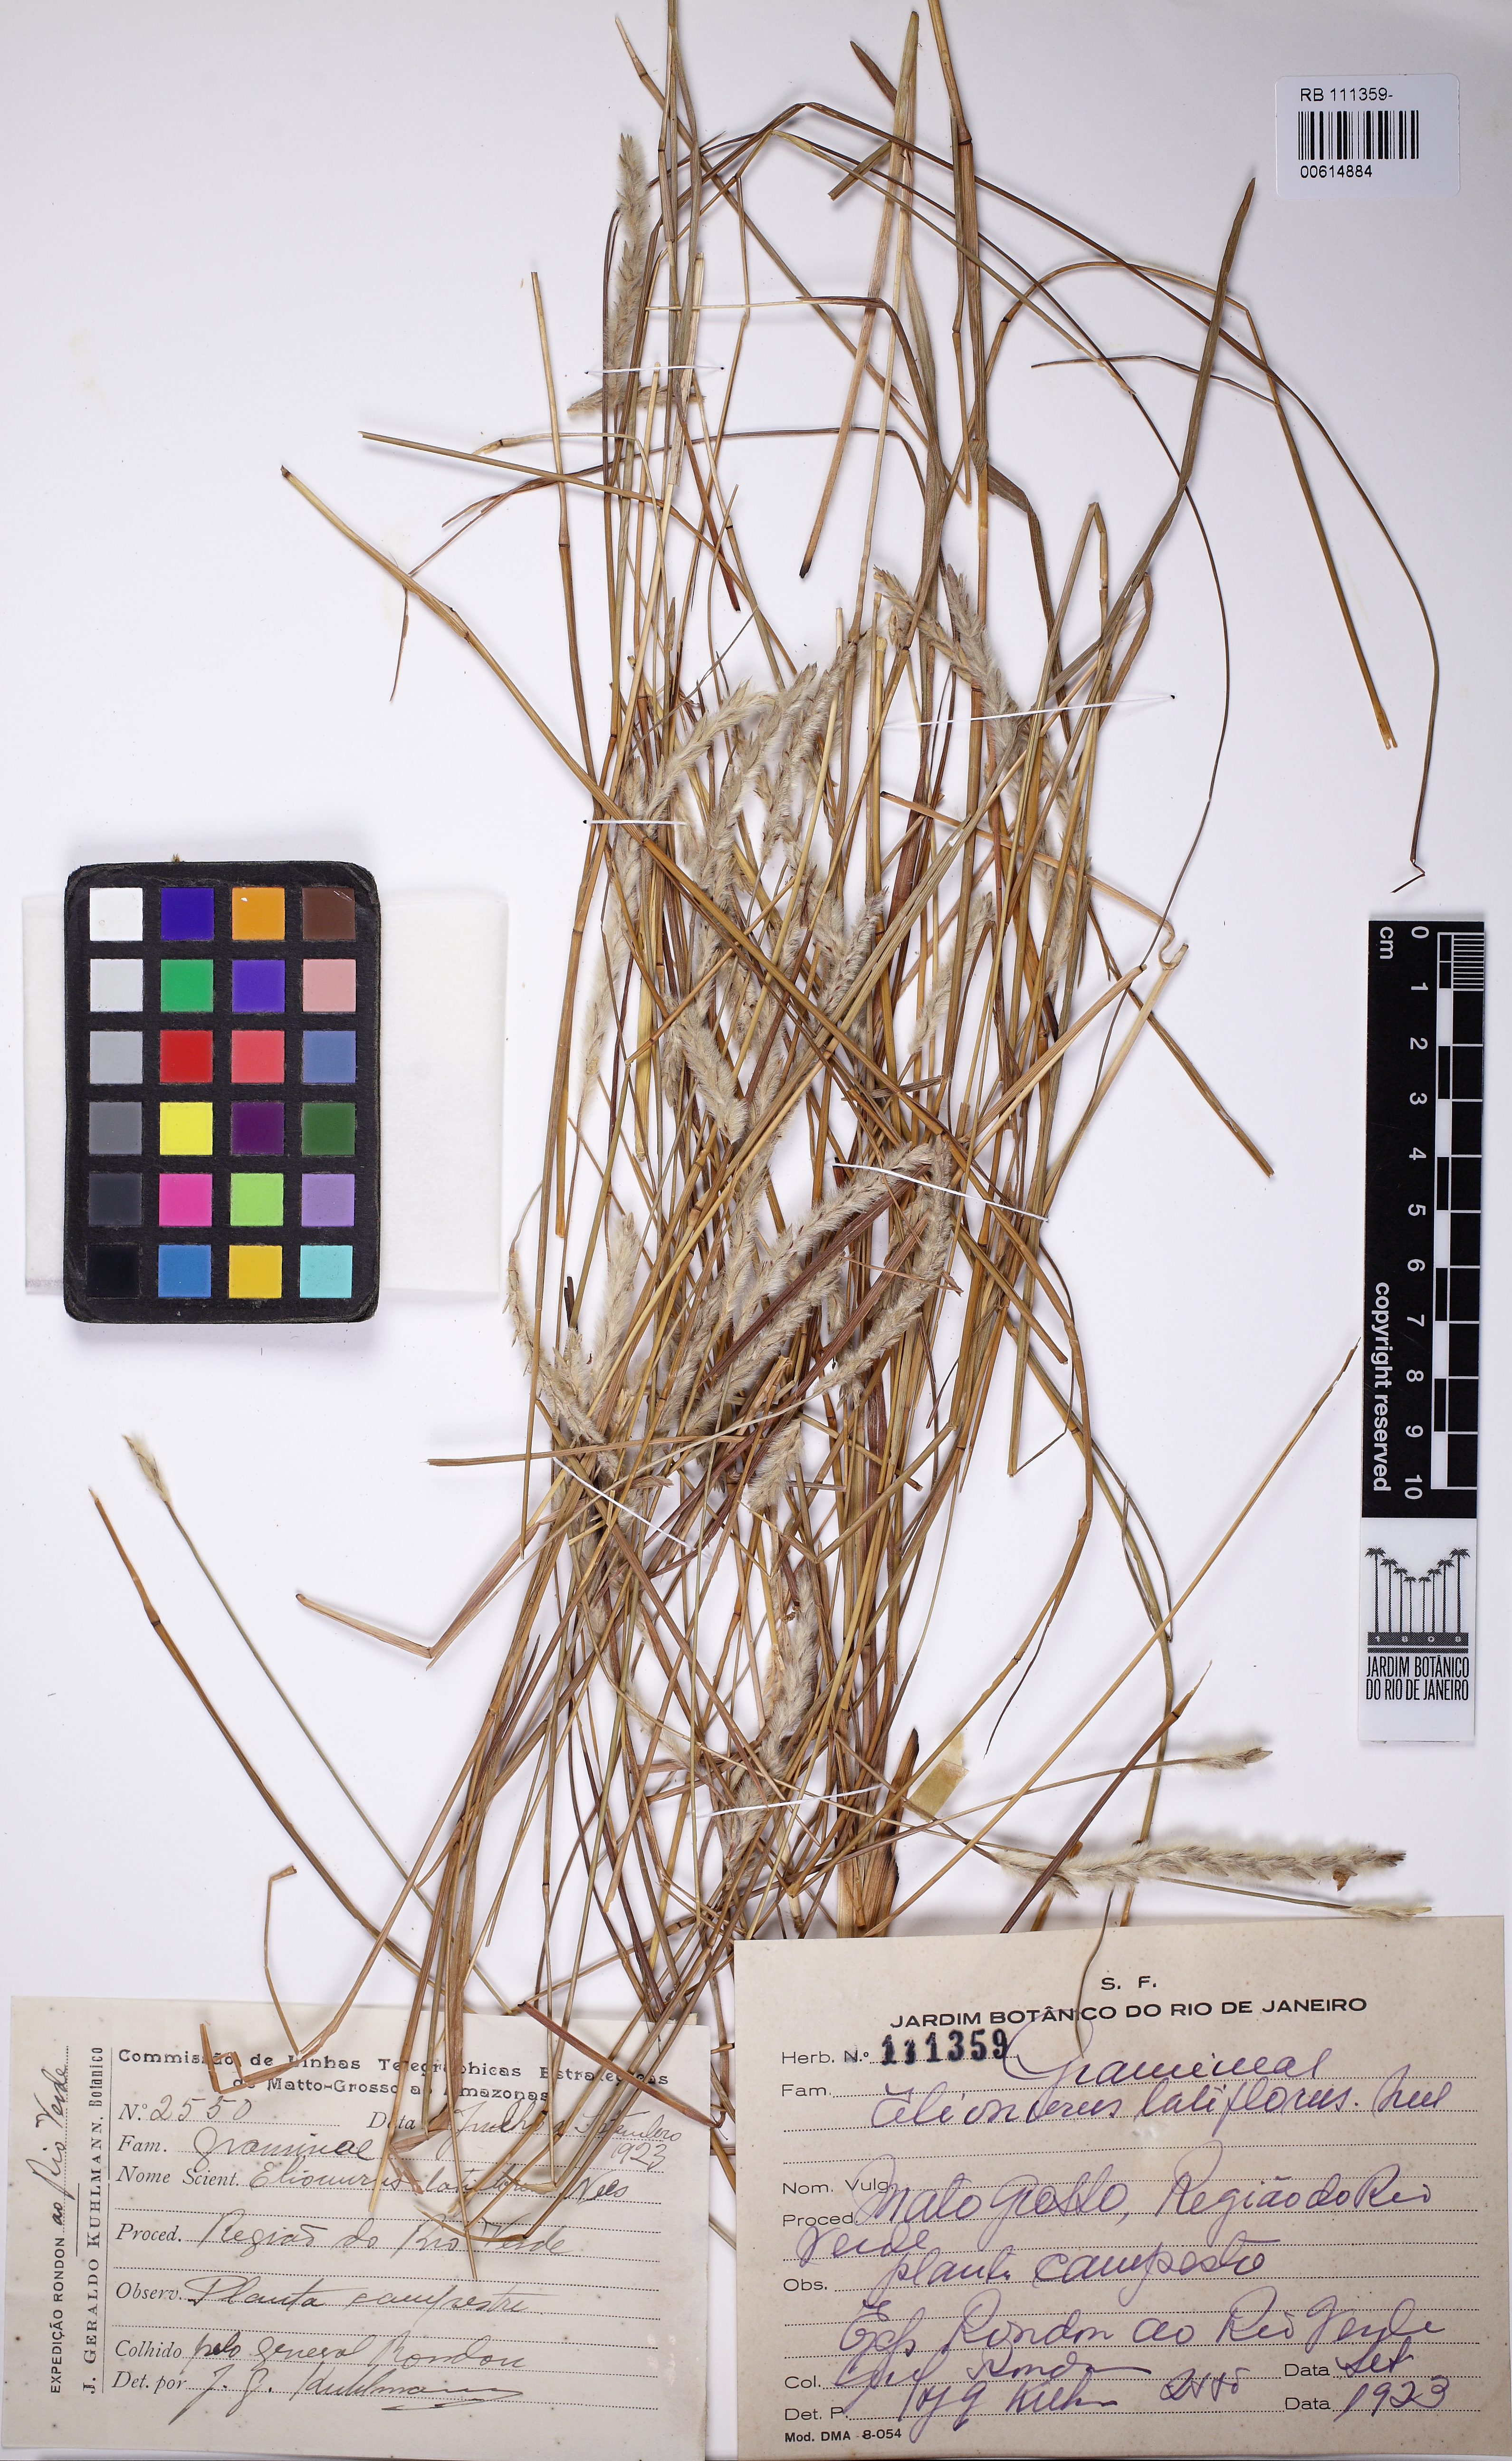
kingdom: Plantae
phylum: Tracheophyta
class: Liliopsida
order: Poales
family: Poaceae
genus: Elionurus
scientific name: Elionurus muticus
